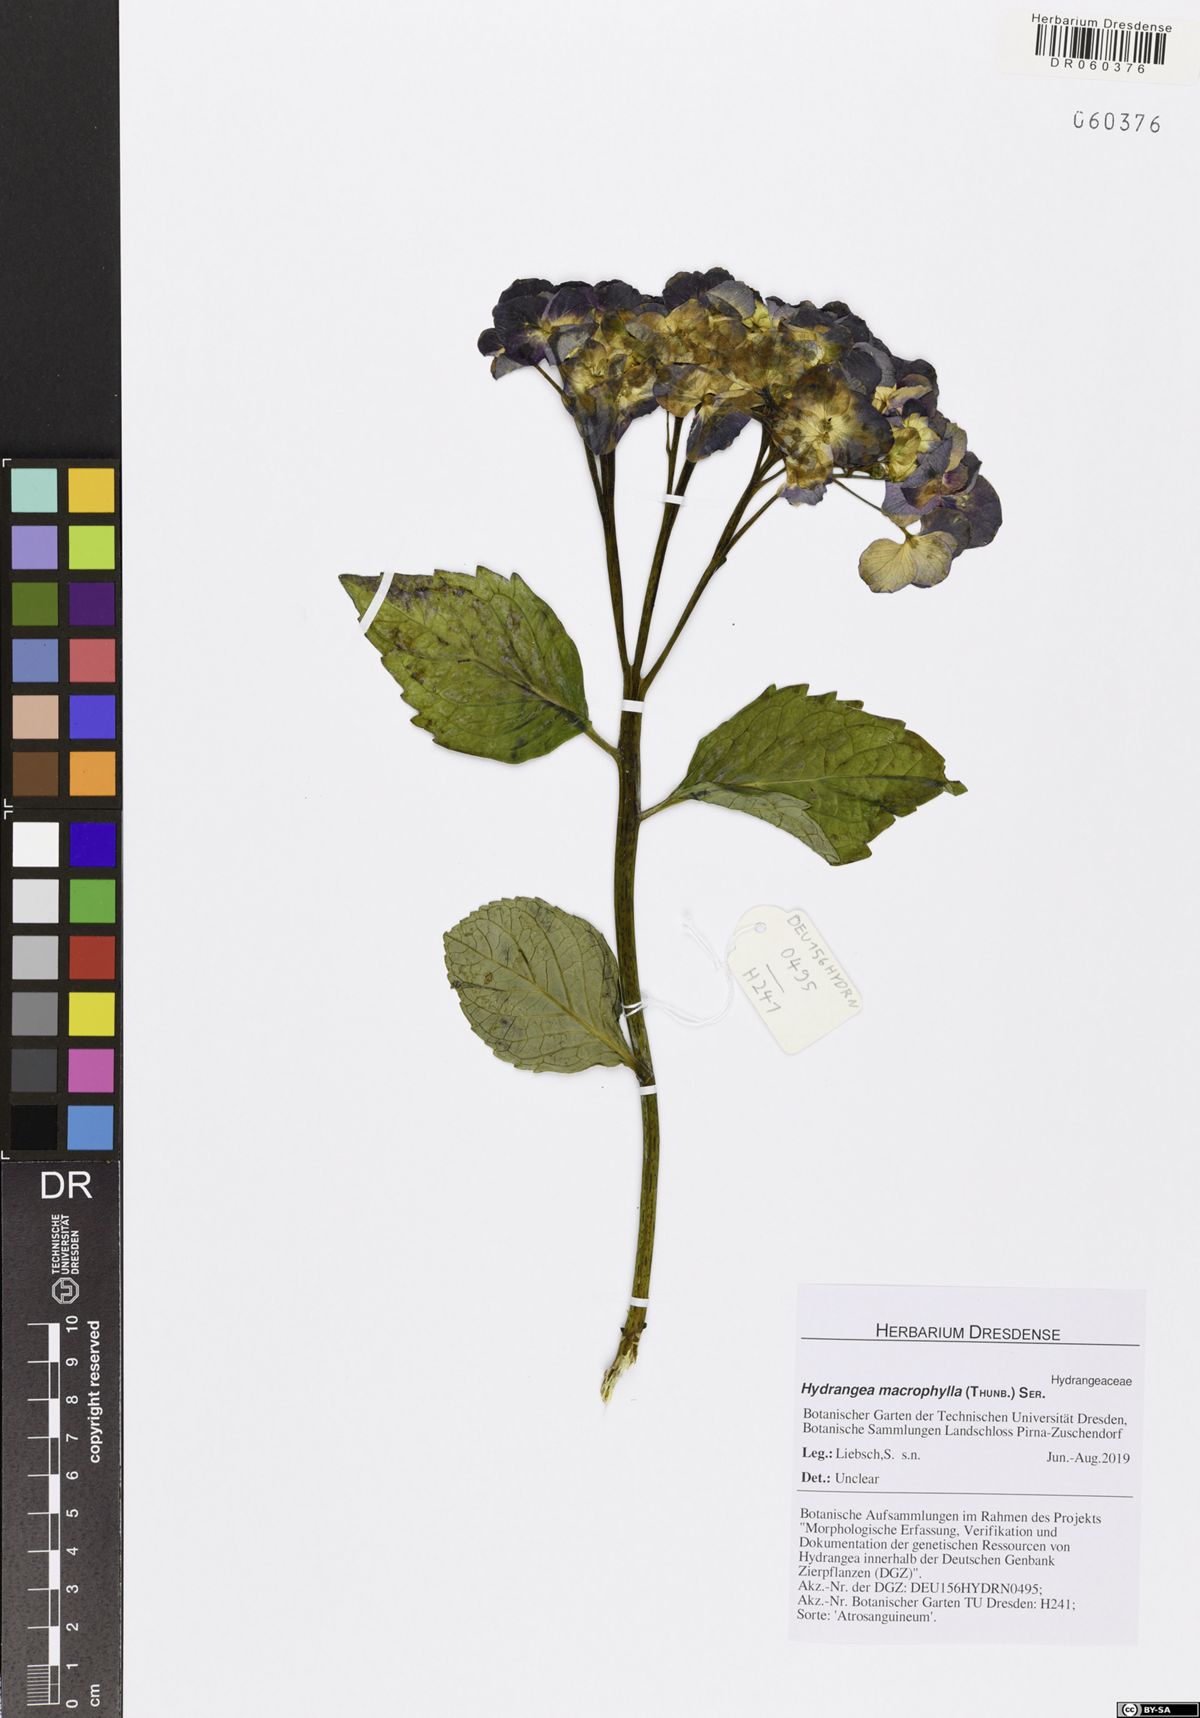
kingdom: Plantae
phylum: Tracheophyta
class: Magnoliopsida
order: Cornales
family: Hydrangeaceae
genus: Hydrangea
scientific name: Hydrangea macrophylla
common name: Hydrangea
